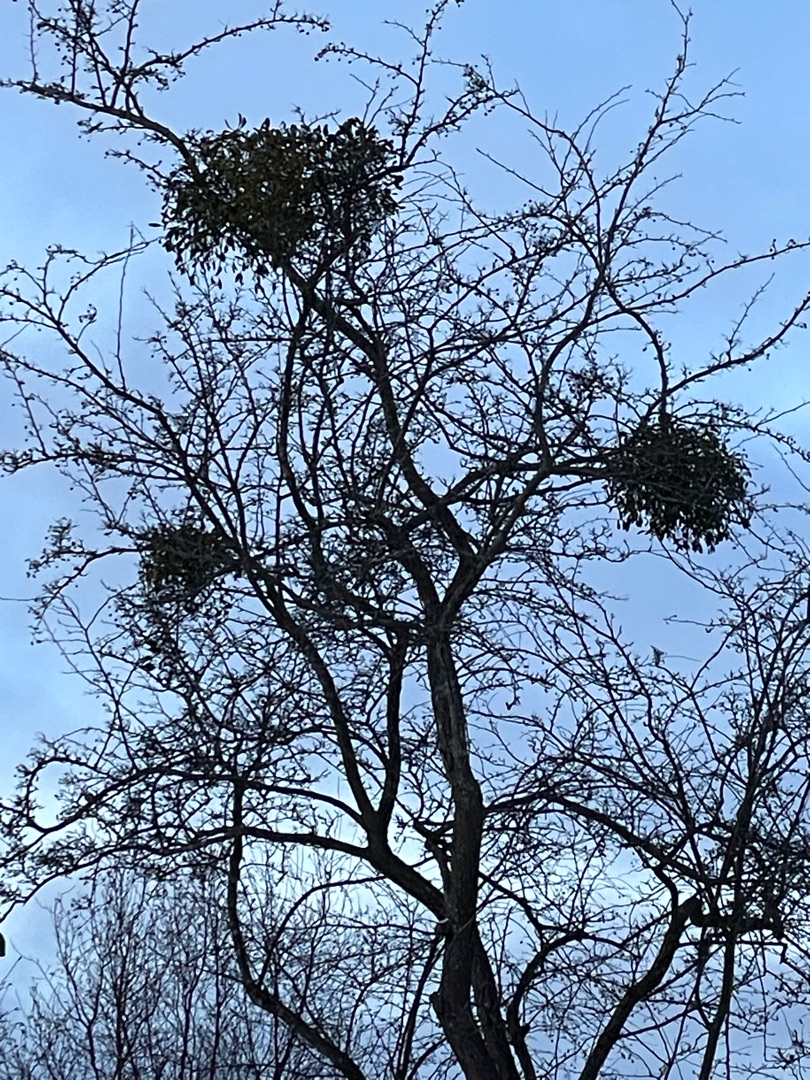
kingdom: Plantae
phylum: Tracheophyta
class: Magnoliopsida
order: Santalales
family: Viscaceae
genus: Viscum
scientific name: Viscum album
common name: Mistelten
